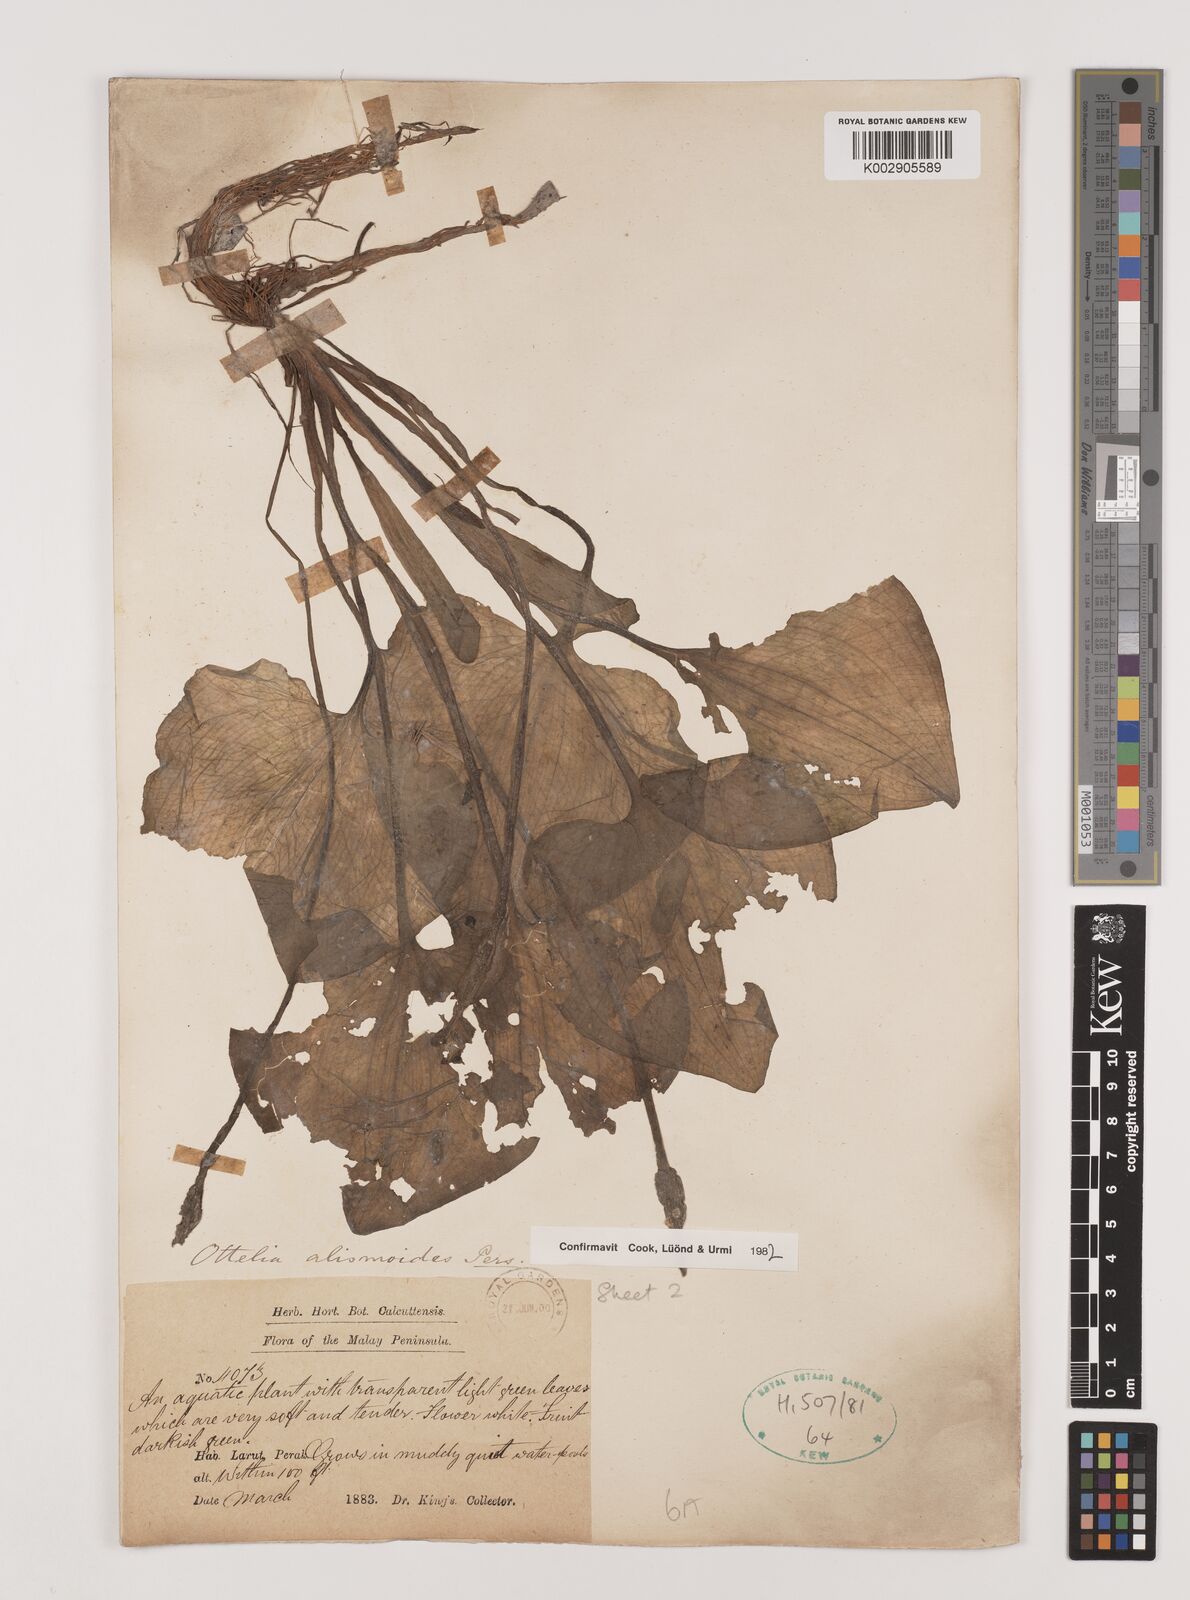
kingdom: Plantae
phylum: Tracheophyta
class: Liliopsida
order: Alismatales
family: Hydrocharitaceae
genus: Ottelia
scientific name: Ottelia alismoides
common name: Duck-lettuce
